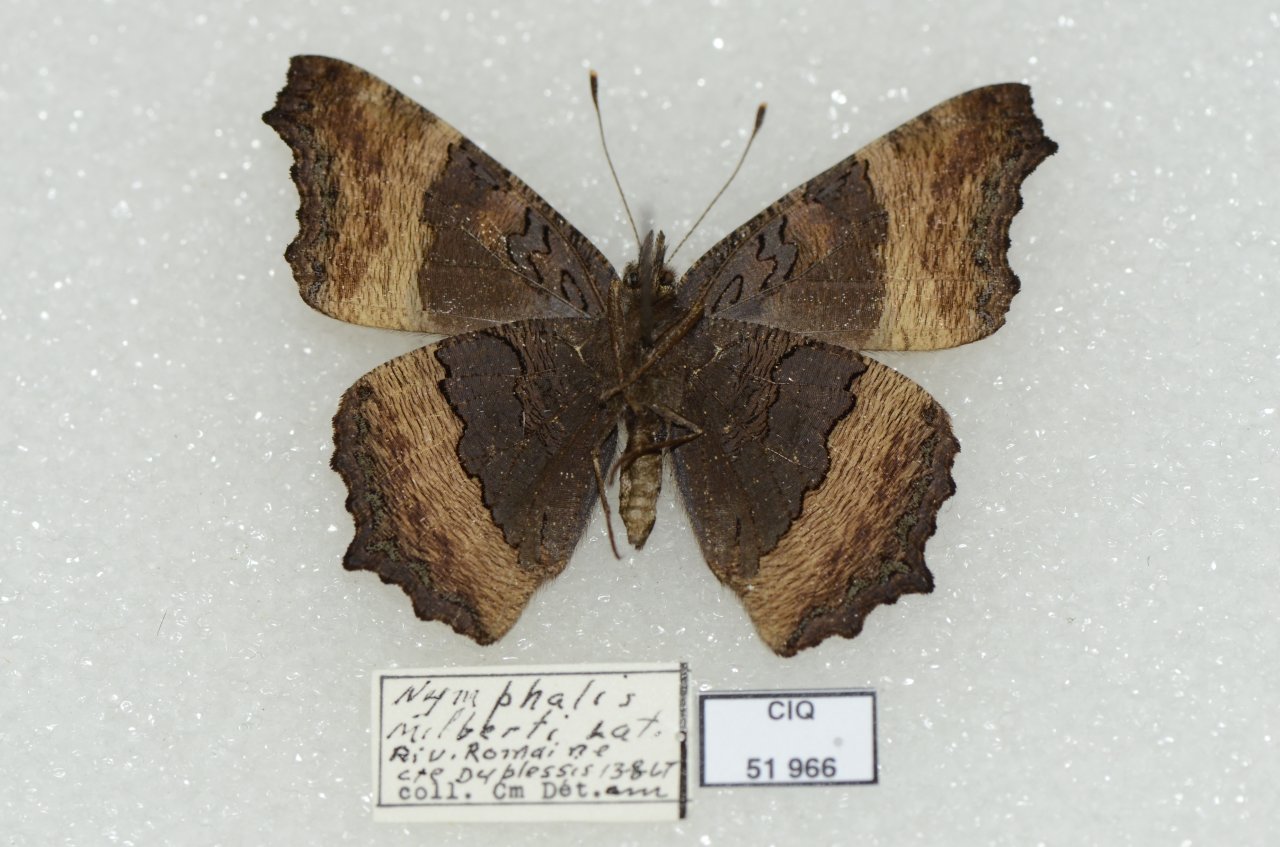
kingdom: Animalia
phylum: Arthropoda
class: Insecta
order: Lepidoptera
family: Nymphalidae
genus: Aglais
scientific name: Aglais milberti
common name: Milbert's Tortoiseshell
